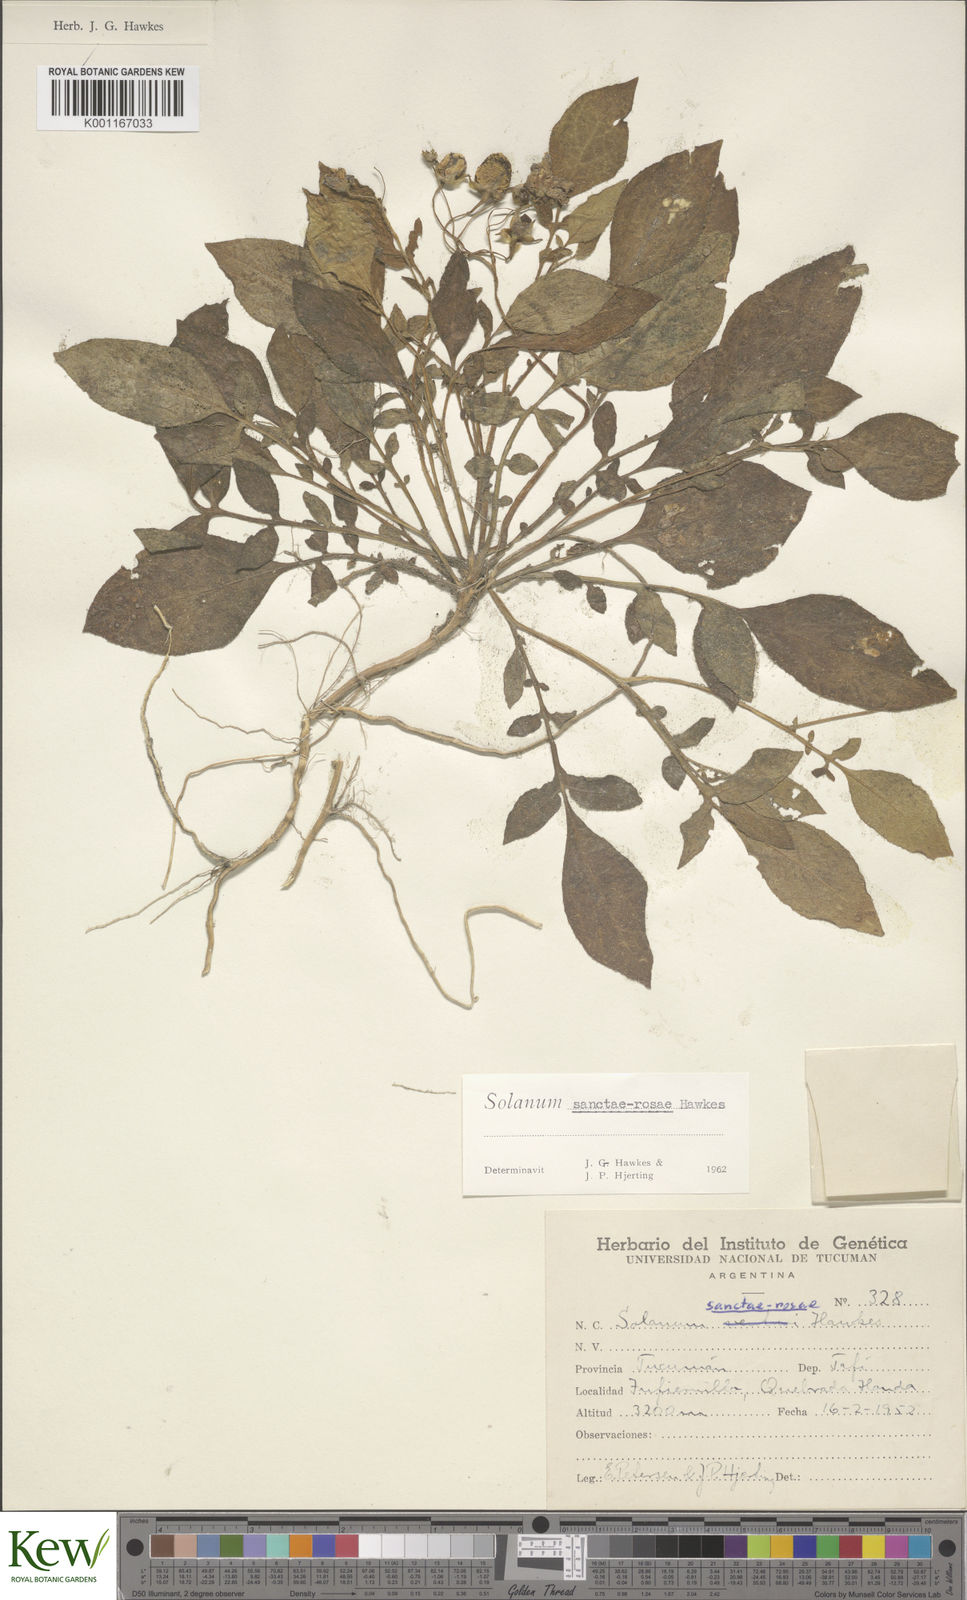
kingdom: Plantae
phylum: Tracheophyta
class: Magnoliopsida
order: Solanales
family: Solanaceae
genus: Solanum
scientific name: Solanum boliviense
